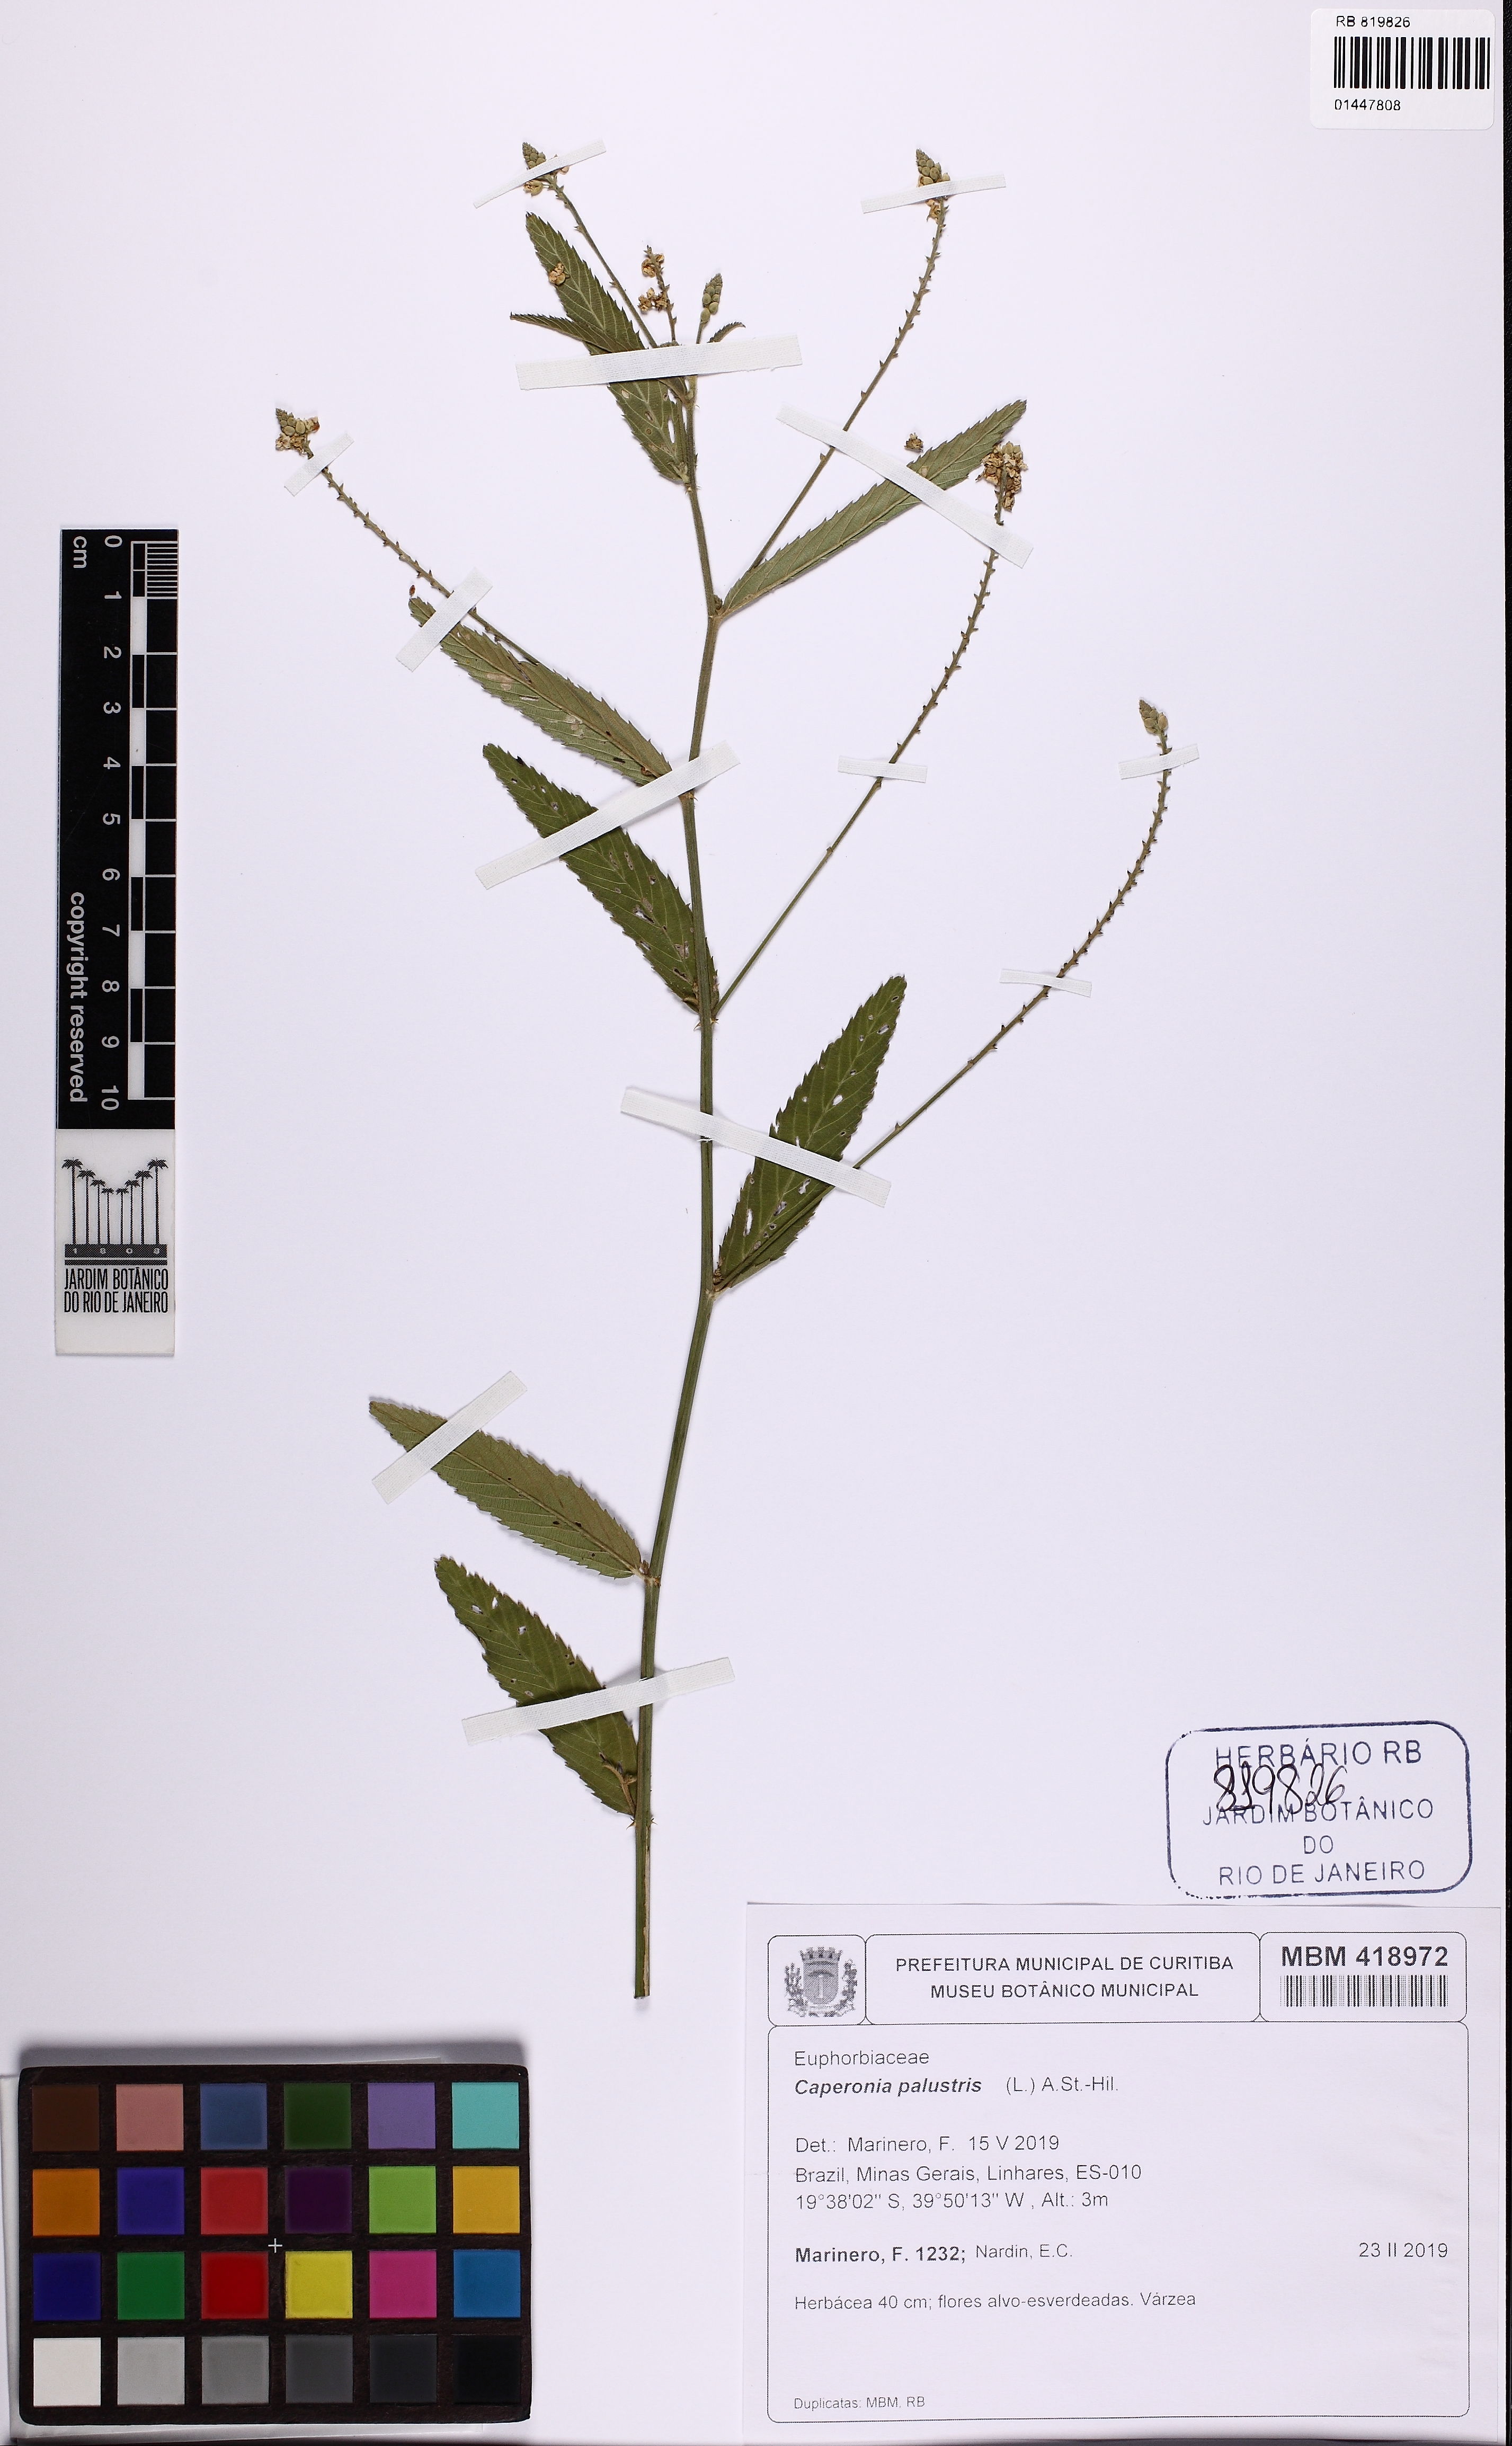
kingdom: Plantae
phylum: Tracheophyta
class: Magnoliopsida
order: Malpighiales
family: Euphorbiaceae
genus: Caperonia
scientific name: Caperonia heteropetala
